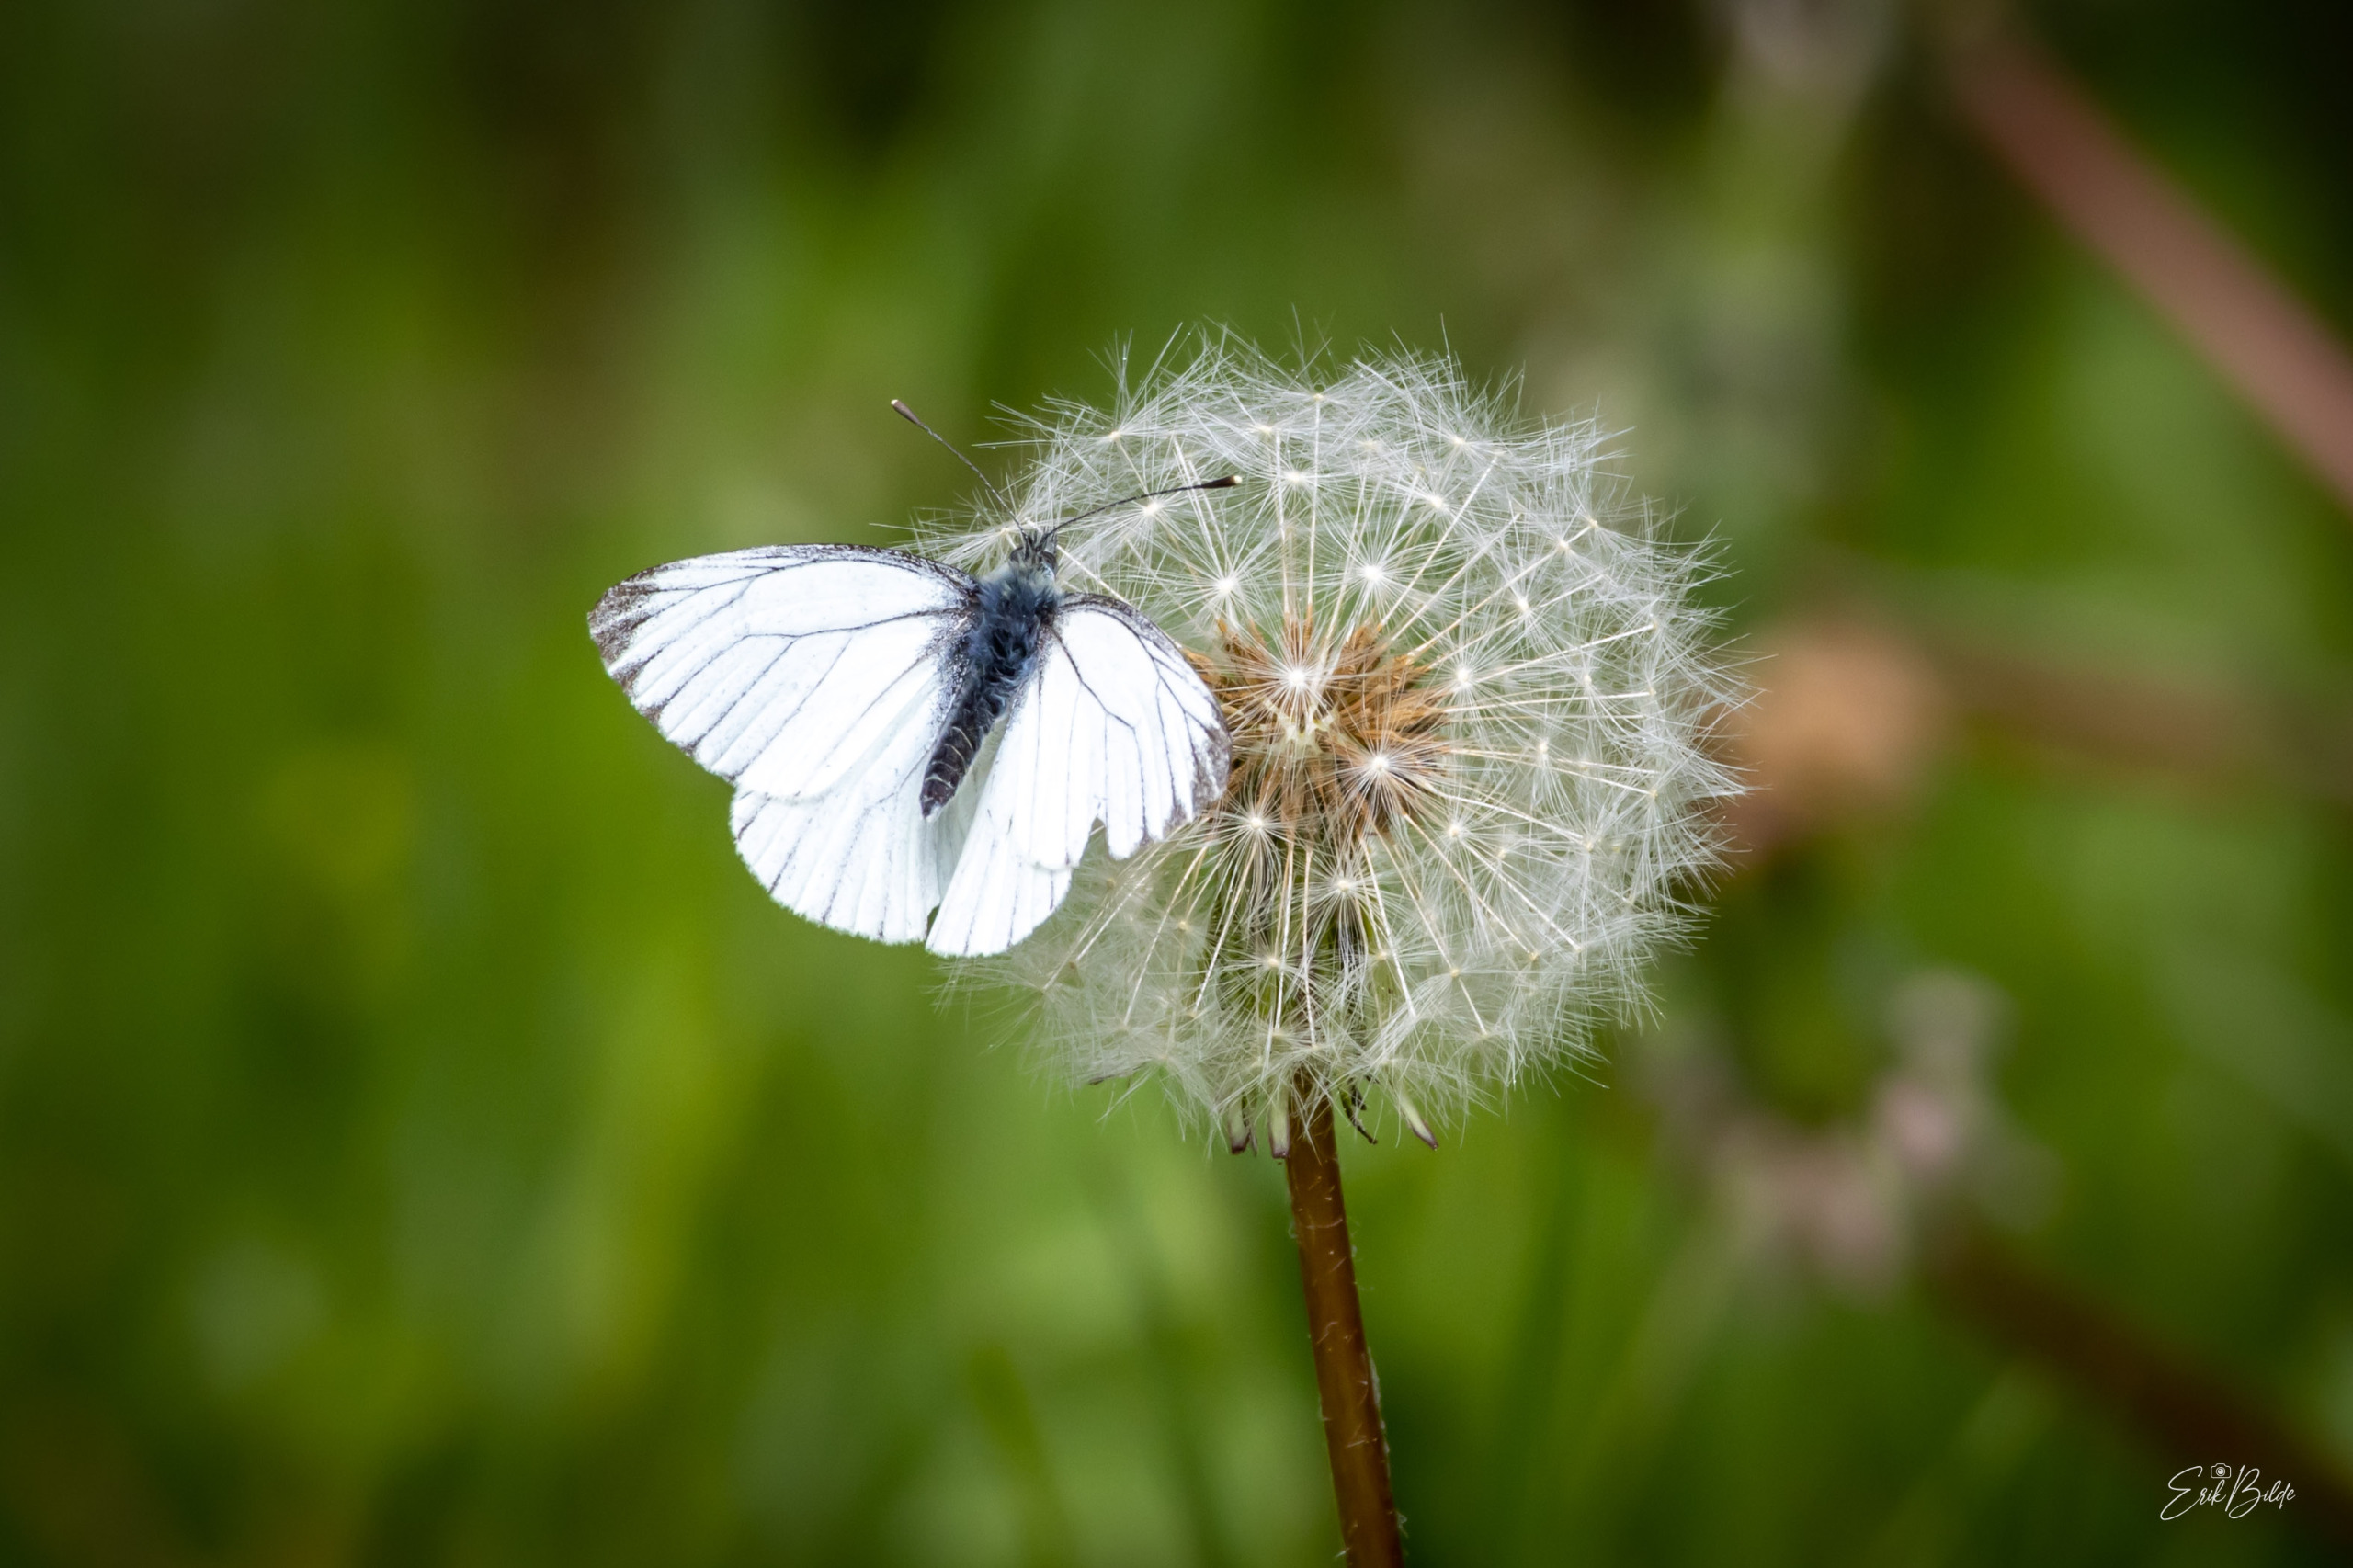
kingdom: Animalia
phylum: Arthropoda
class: Insecta
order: Lepidoptera
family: Pieridae
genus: Pieris
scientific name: Pieris napi
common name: Grønåret kålsommerfugl
